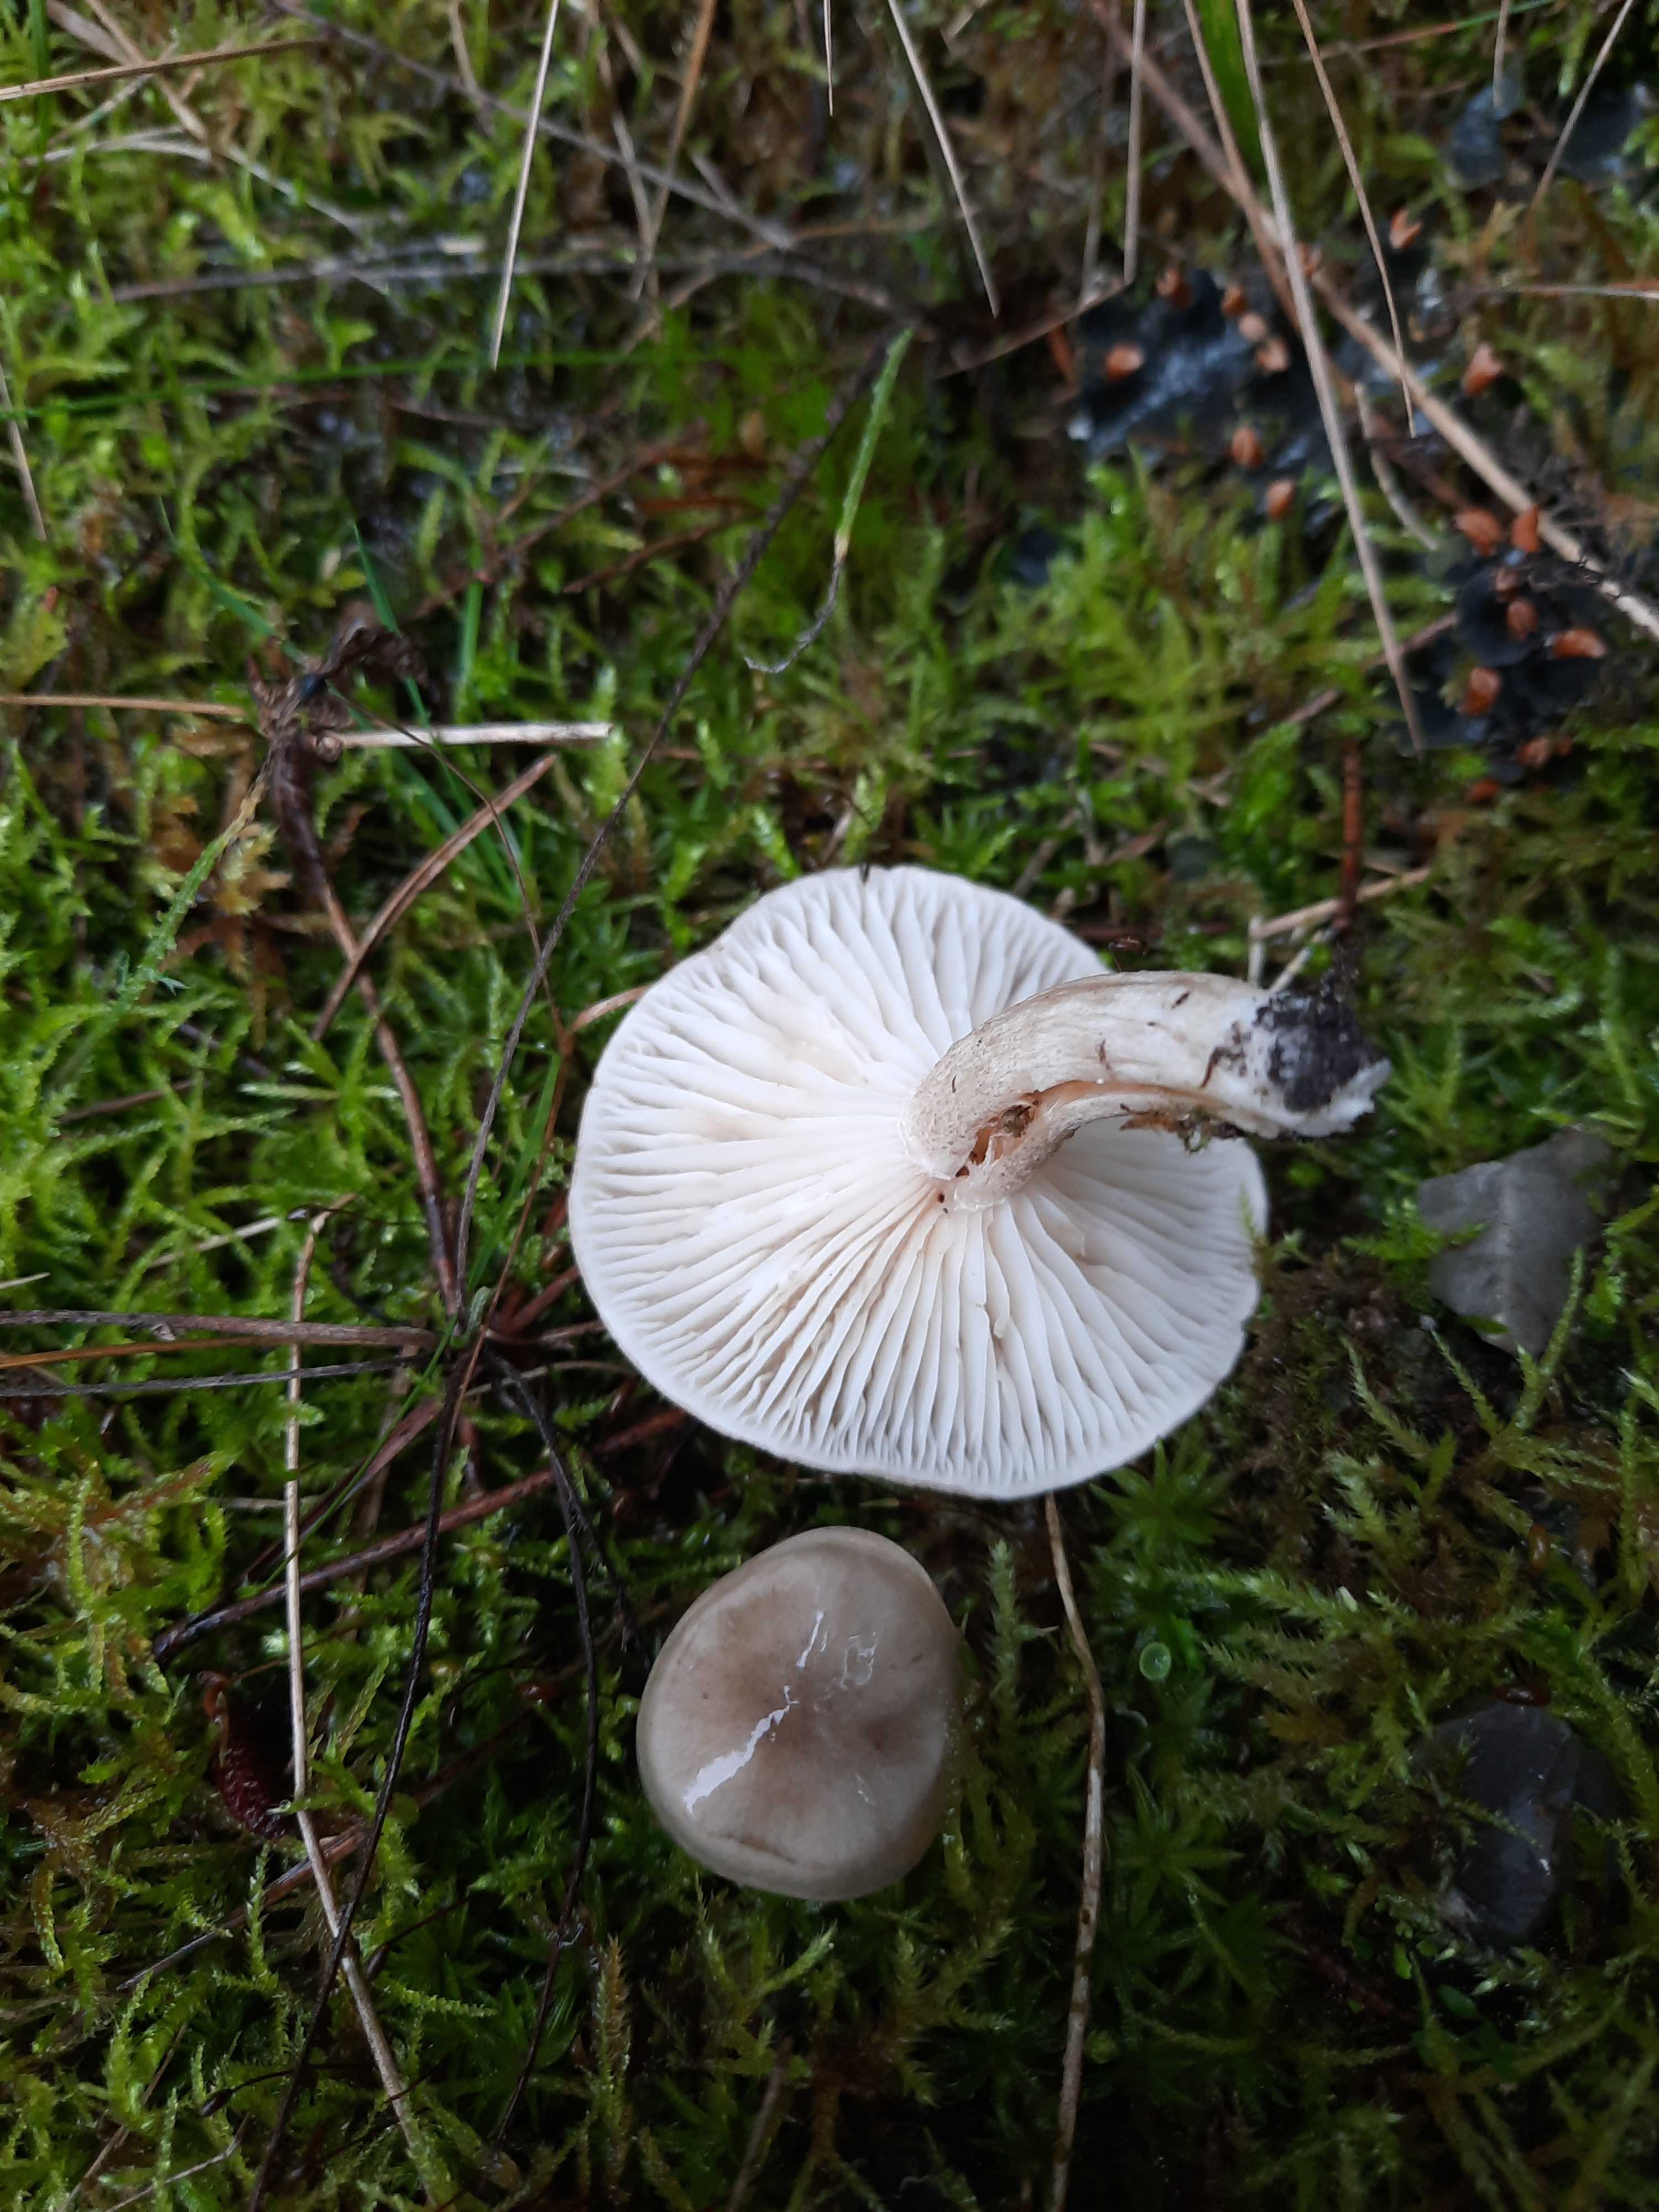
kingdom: Fungi
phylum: Basidiomycota
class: Agaricomycetes
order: Agaricales
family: Hygrophoraceae
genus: Hygrophorus
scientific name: Hygrophorus agathosmus
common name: vellugtende sneglehat
